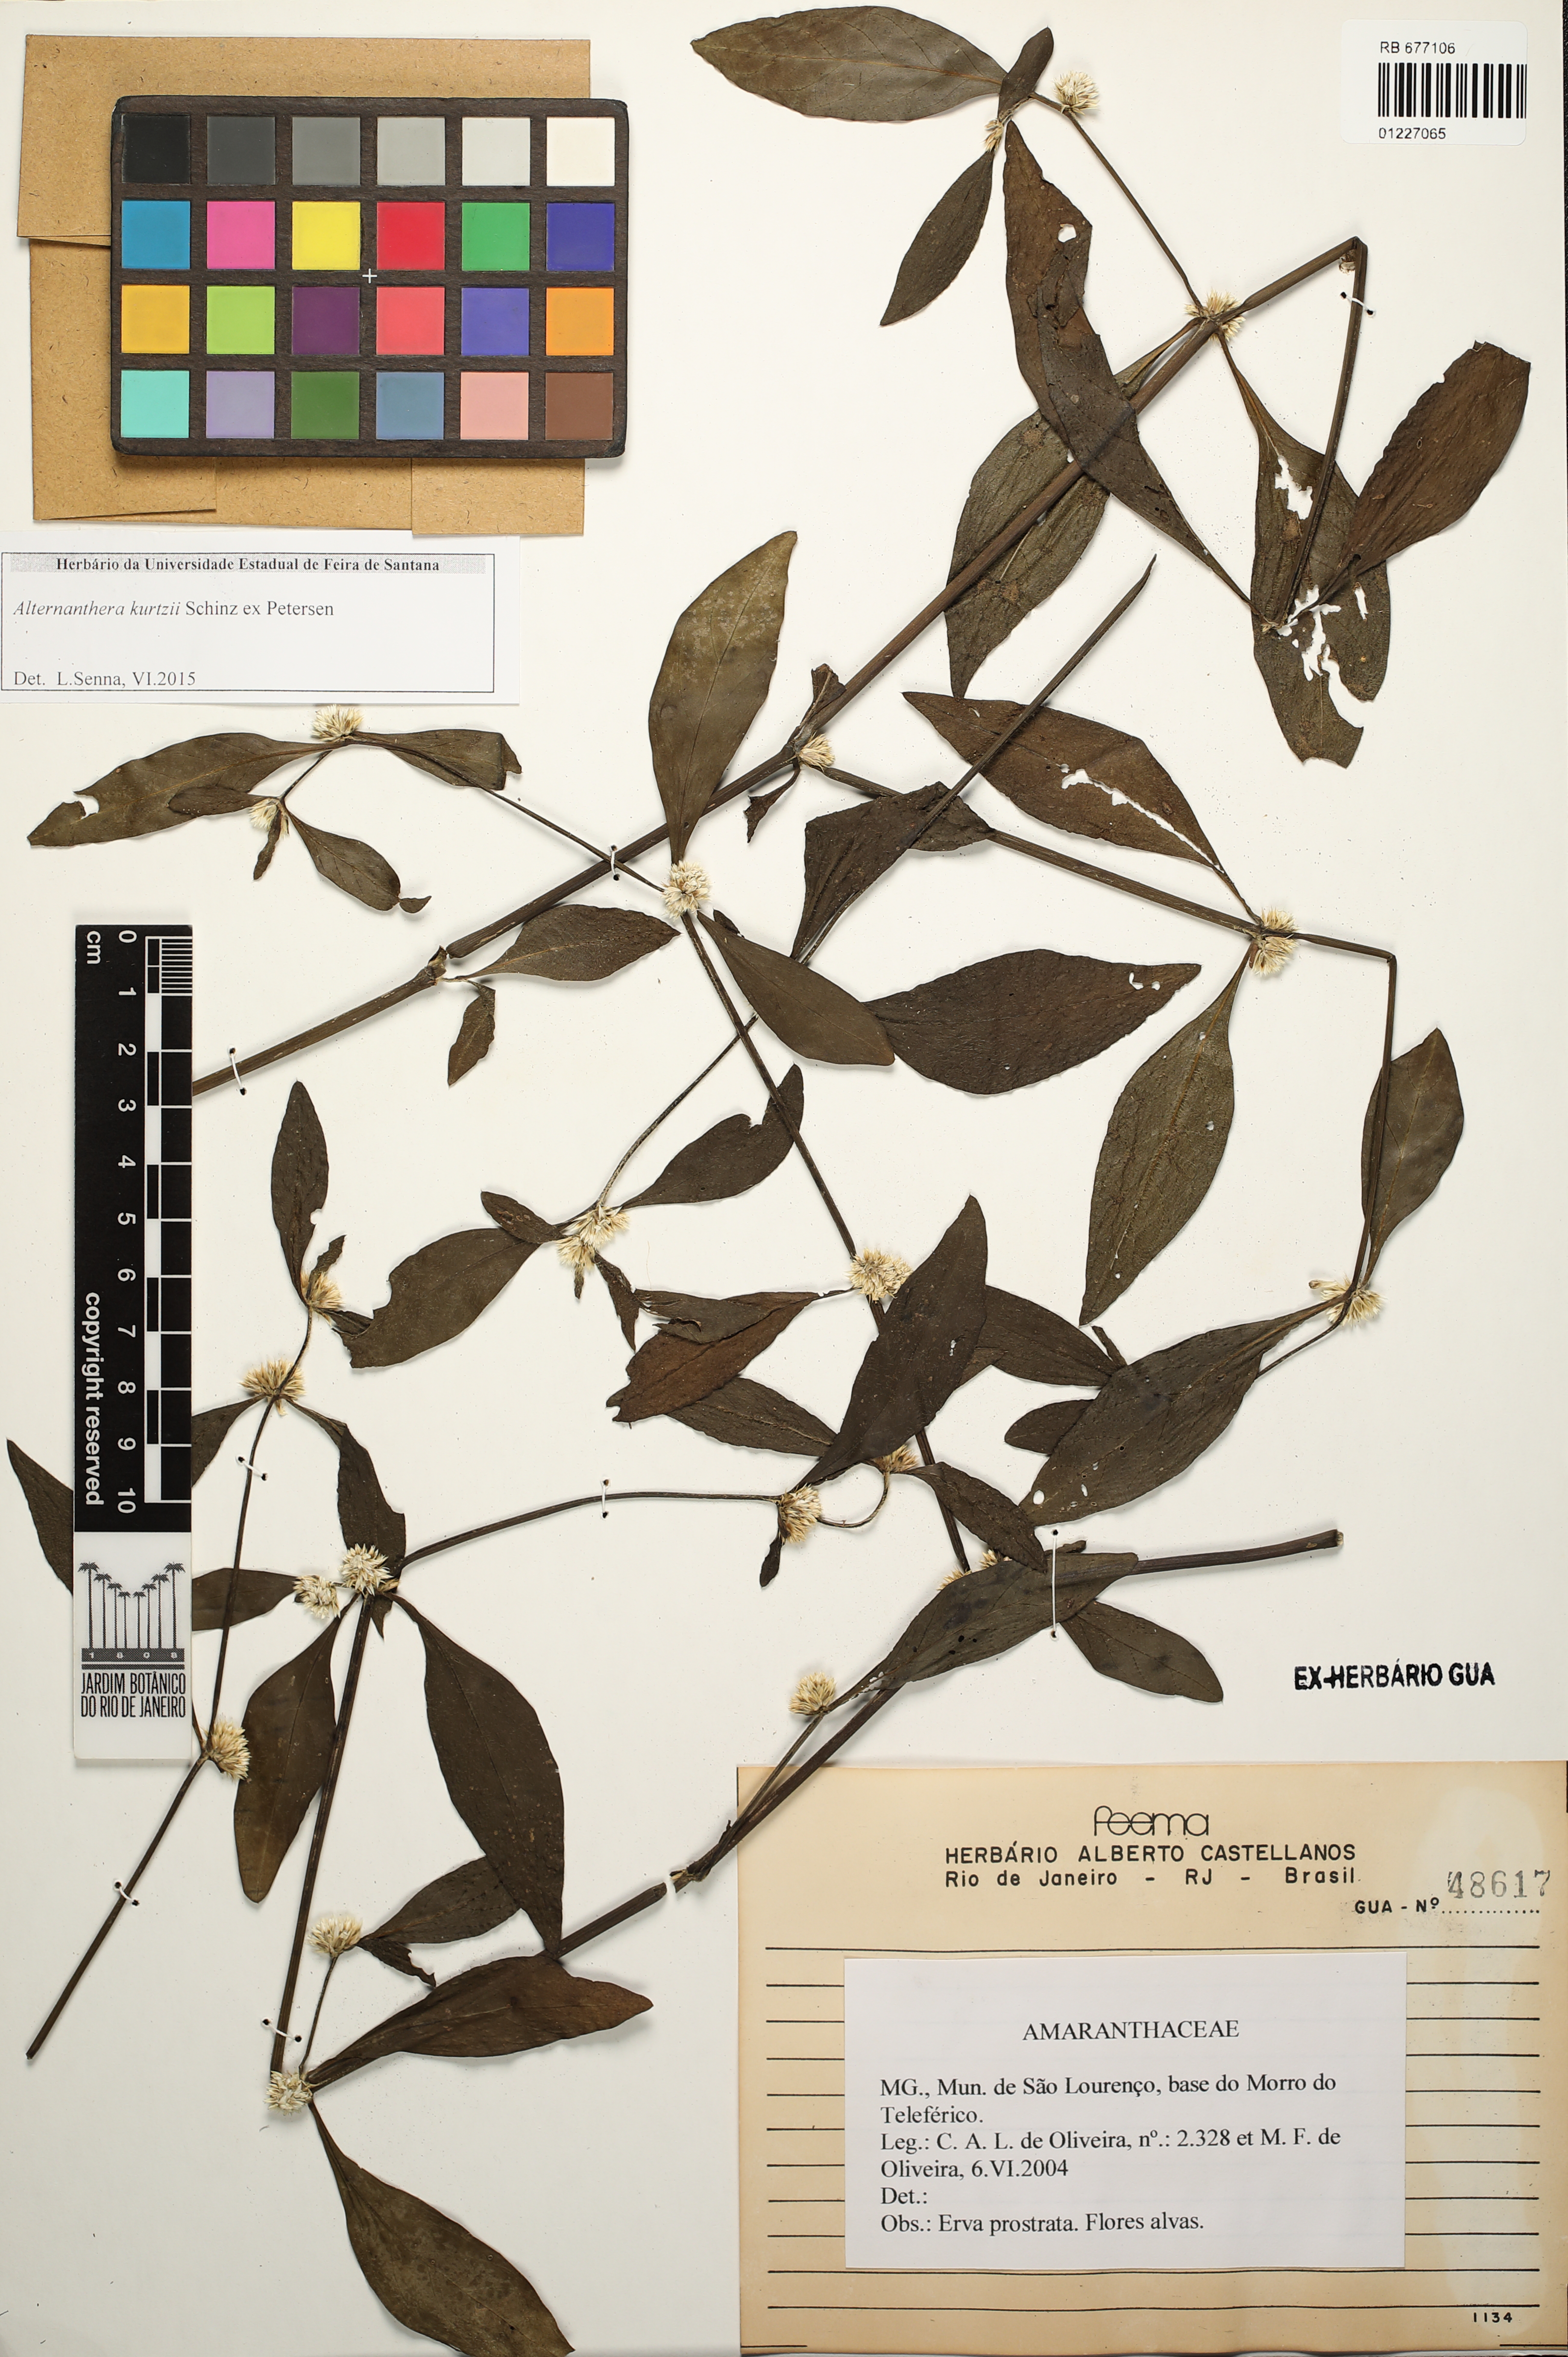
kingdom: Plantae
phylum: Tracheophyta
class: Magnoliopsida
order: Caryophyllales
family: Amaranthaceae
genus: Alternanthera
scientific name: Alternanthera kurtzii
